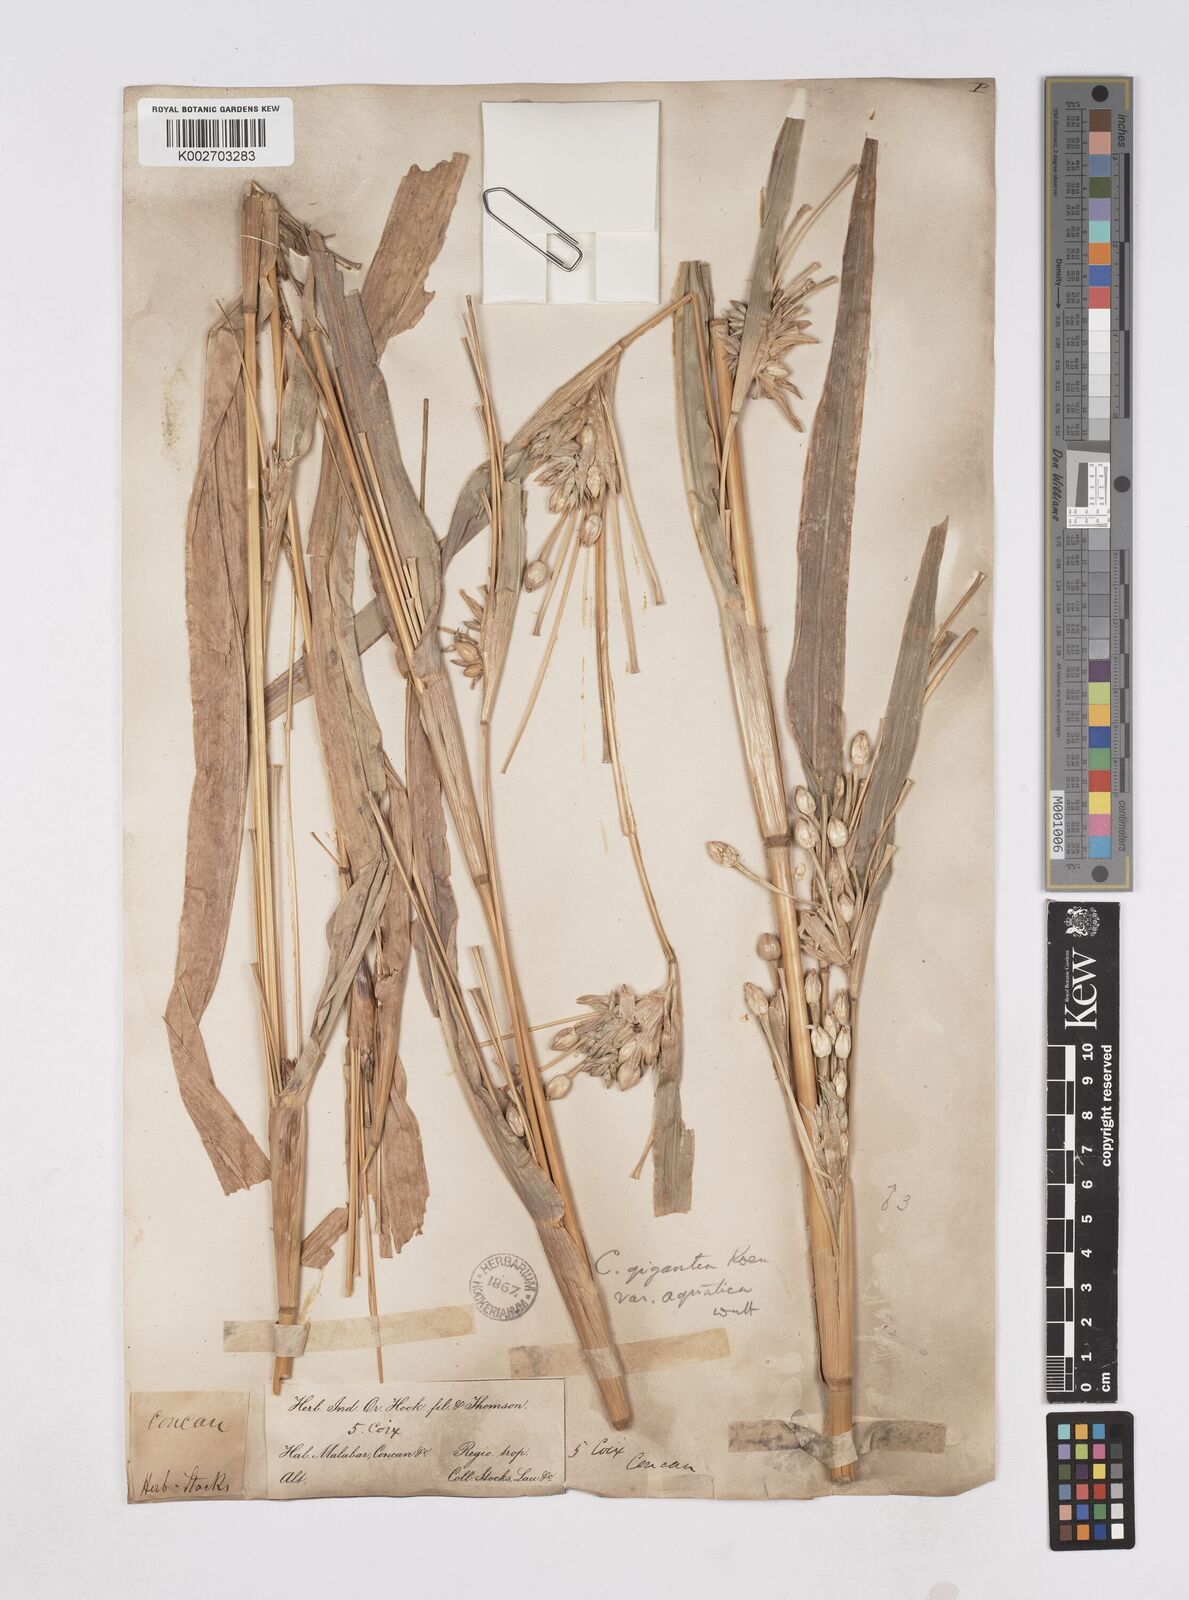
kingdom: Plantae
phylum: Tracheophyta
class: Liliopsida
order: Poales
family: Poaceae
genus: Coix
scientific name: Coix aquatica
